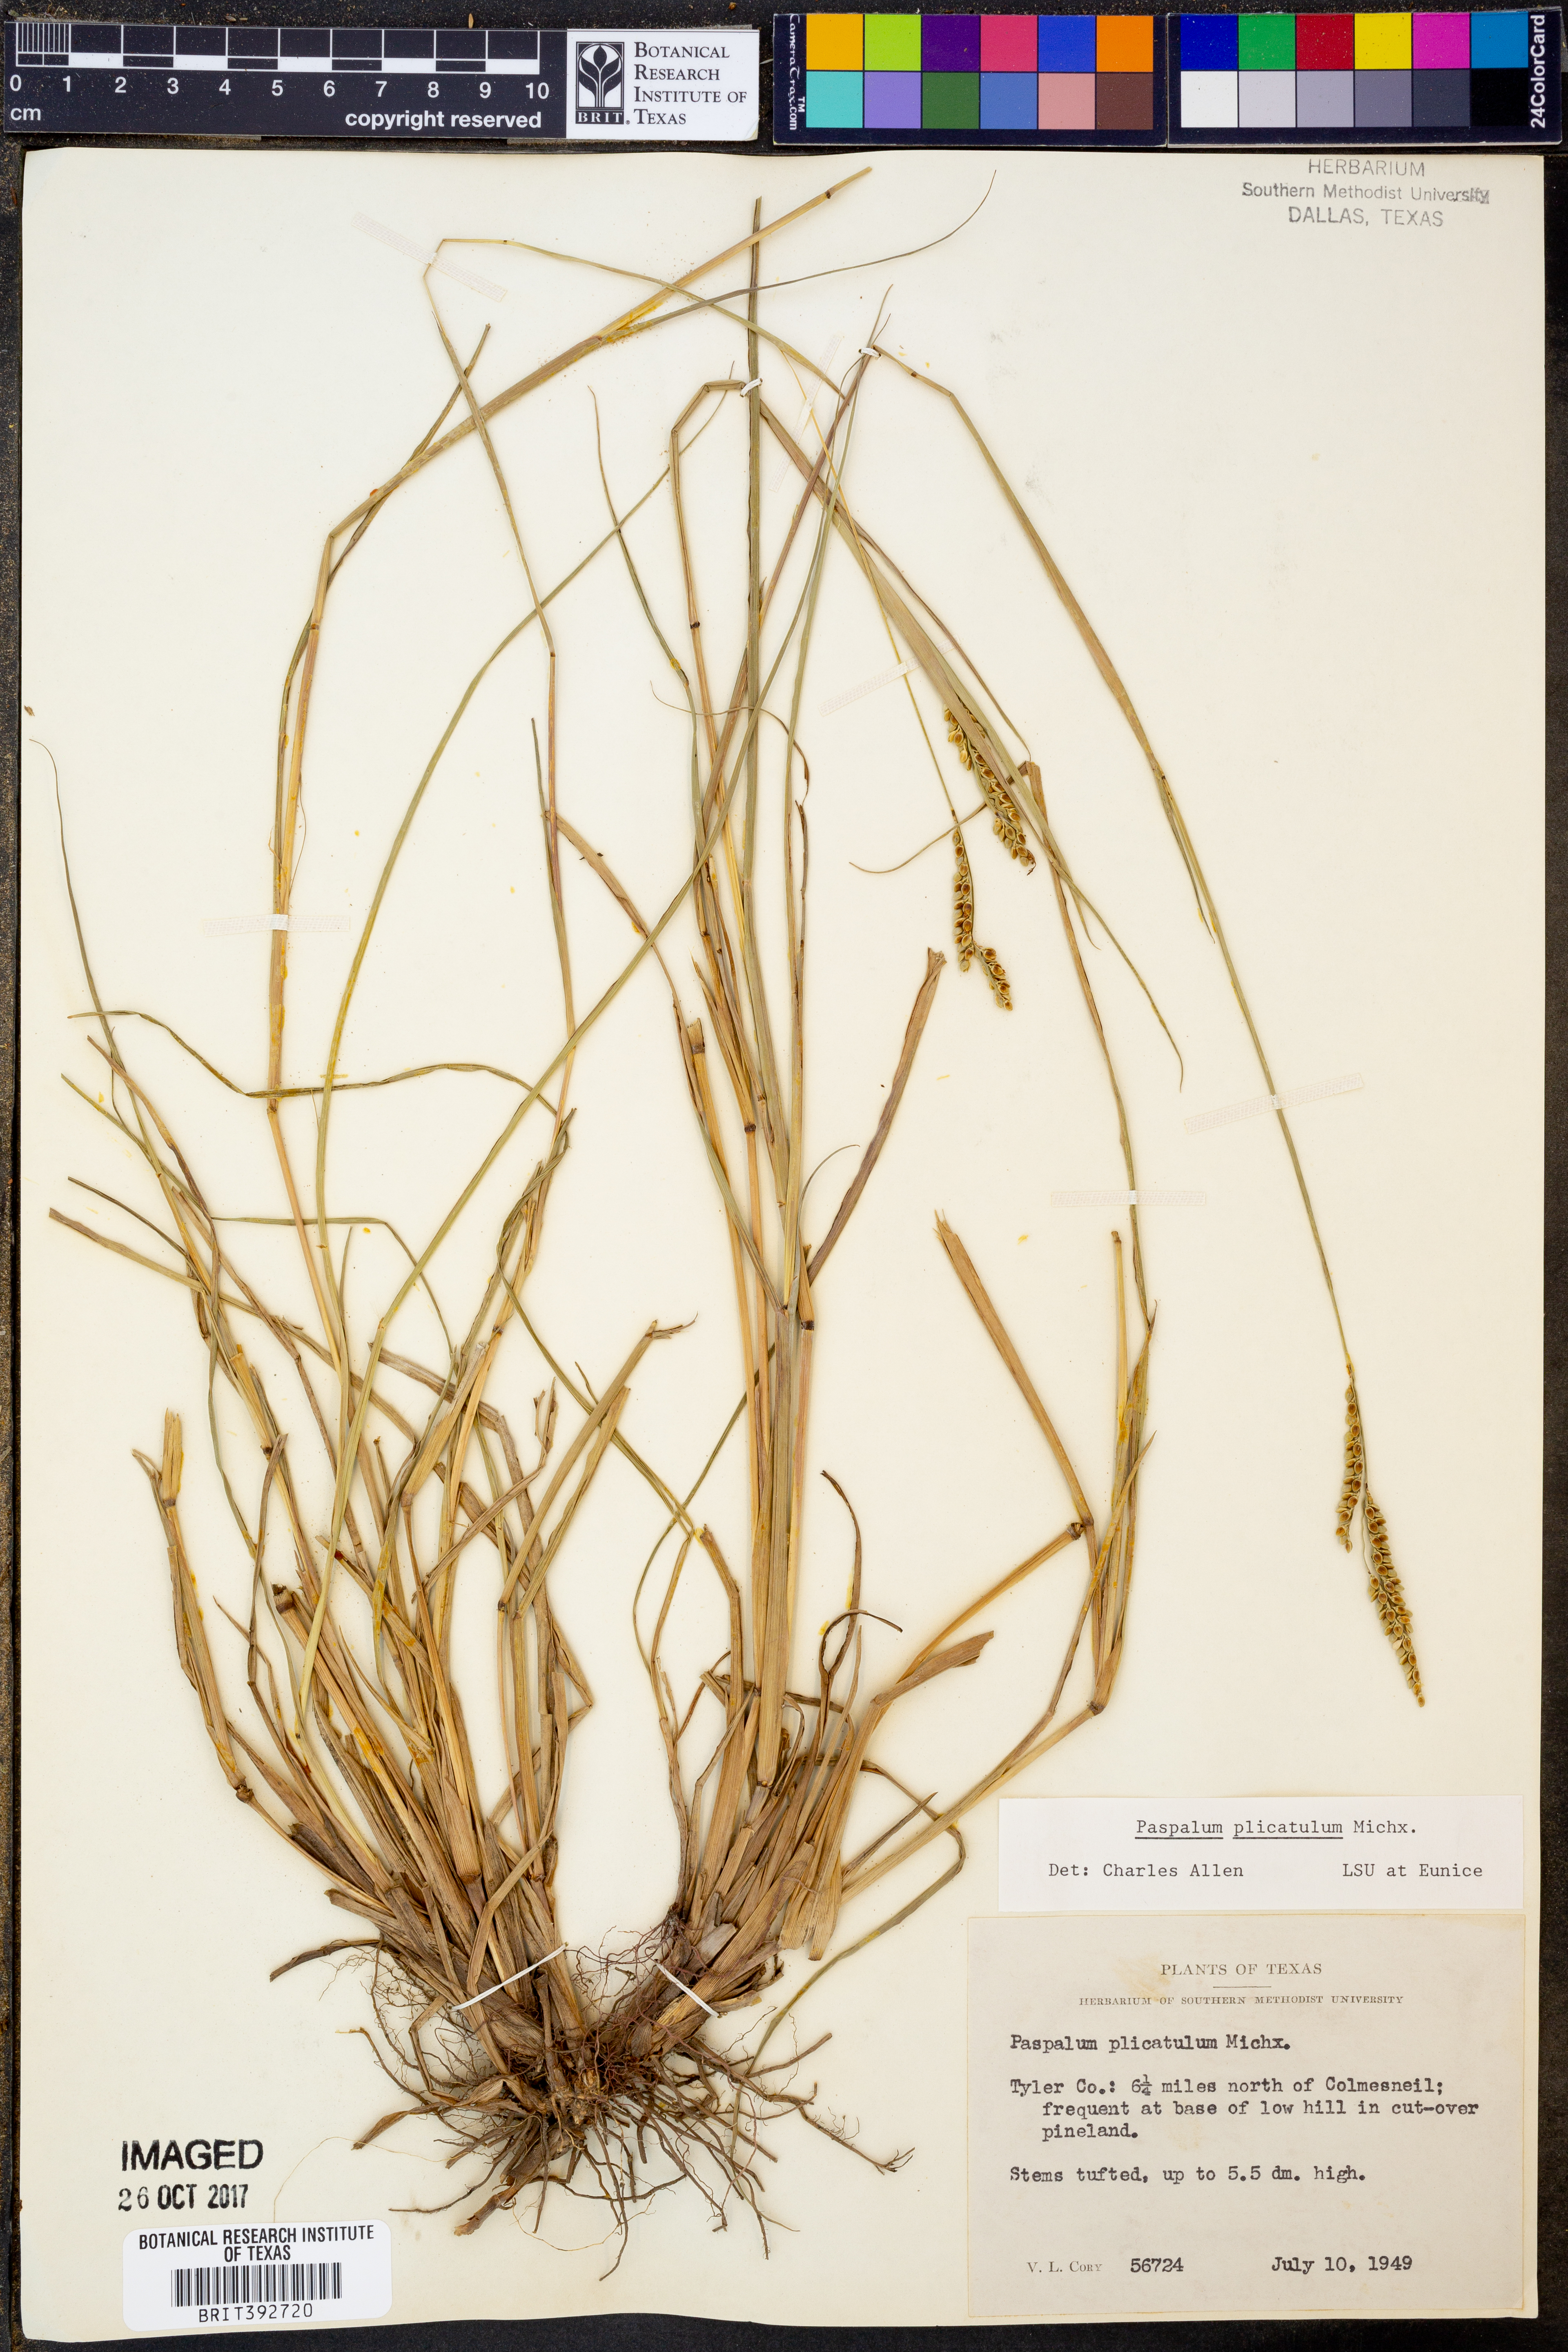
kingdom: Plantae
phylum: Tracheophyta
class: Liliopsida
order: Poales
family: Poaceae
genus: Paspalum
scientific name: Paspalum plicatulum
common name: Top paspalum
